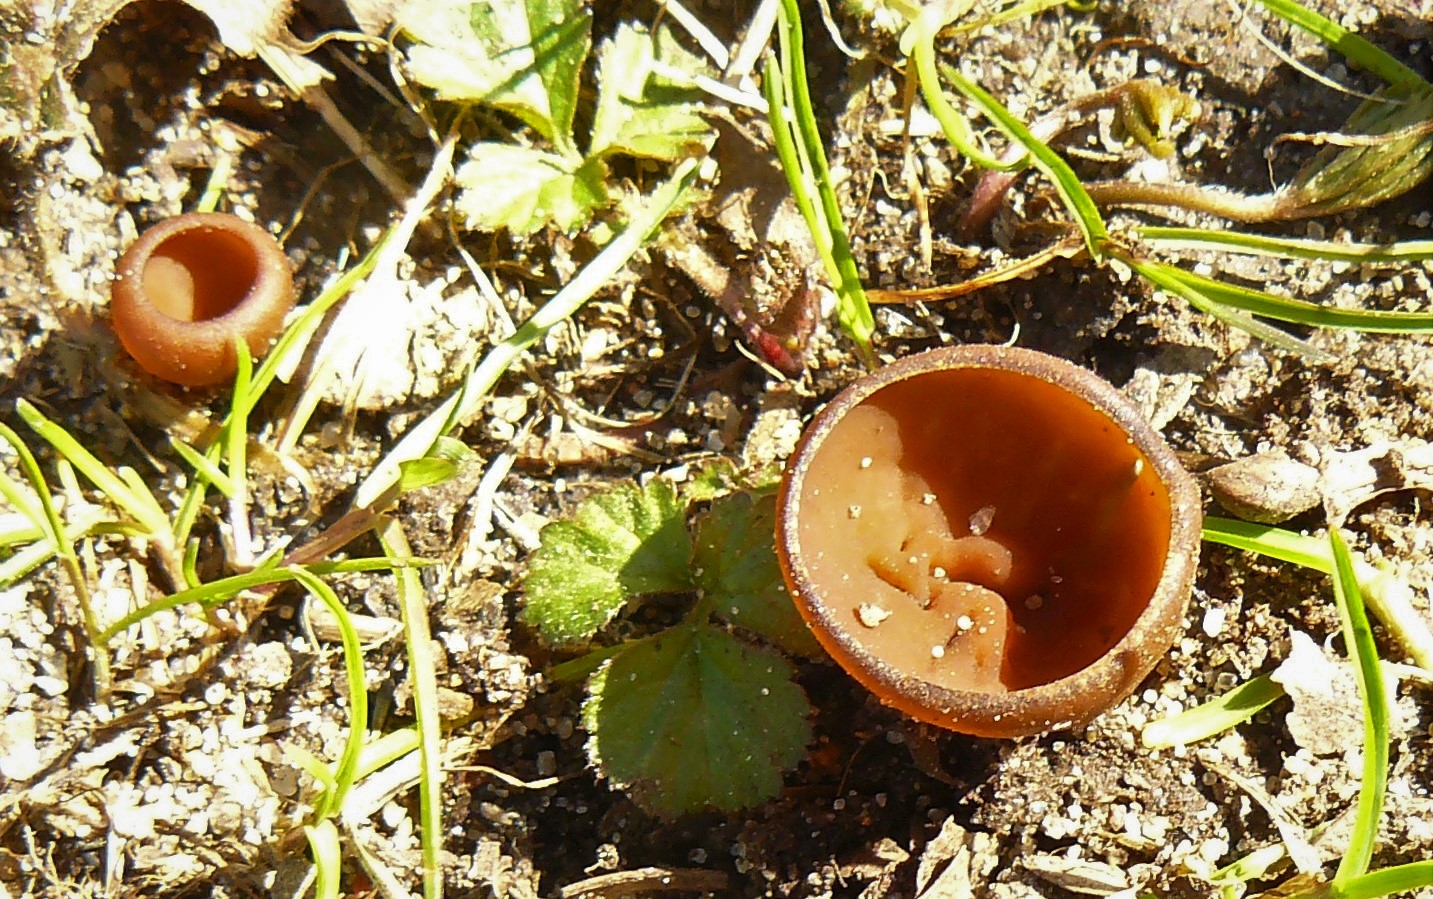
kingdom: Fungi
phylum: Ascomycota
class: Leotiomycetes
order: Helotiales
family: Sclerotiniaceae
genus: Dumontinia
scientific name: Dumontinia tuberosa
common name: anemone-knoldskive
